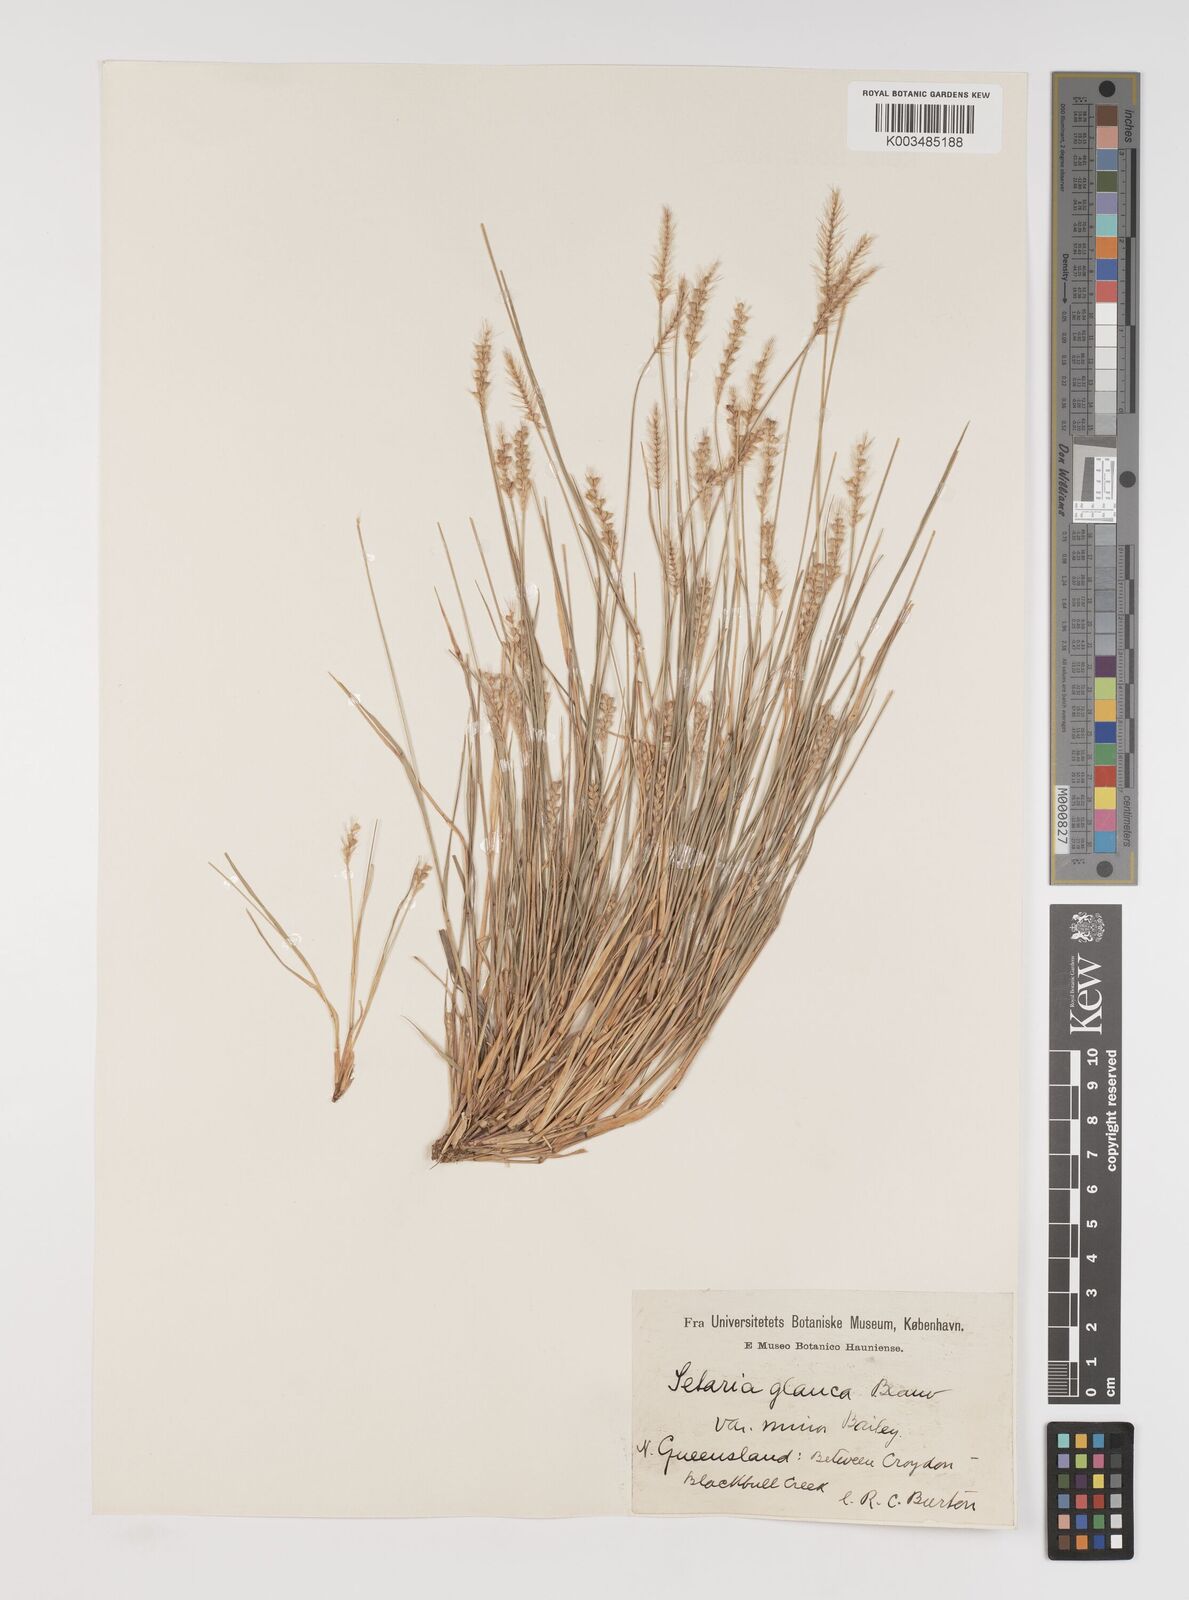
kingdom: Plantae
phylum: Tracheophyta
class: Liliopsida
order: Poales
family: Poaceae
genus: Setaria
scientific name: Setaria apiculata
